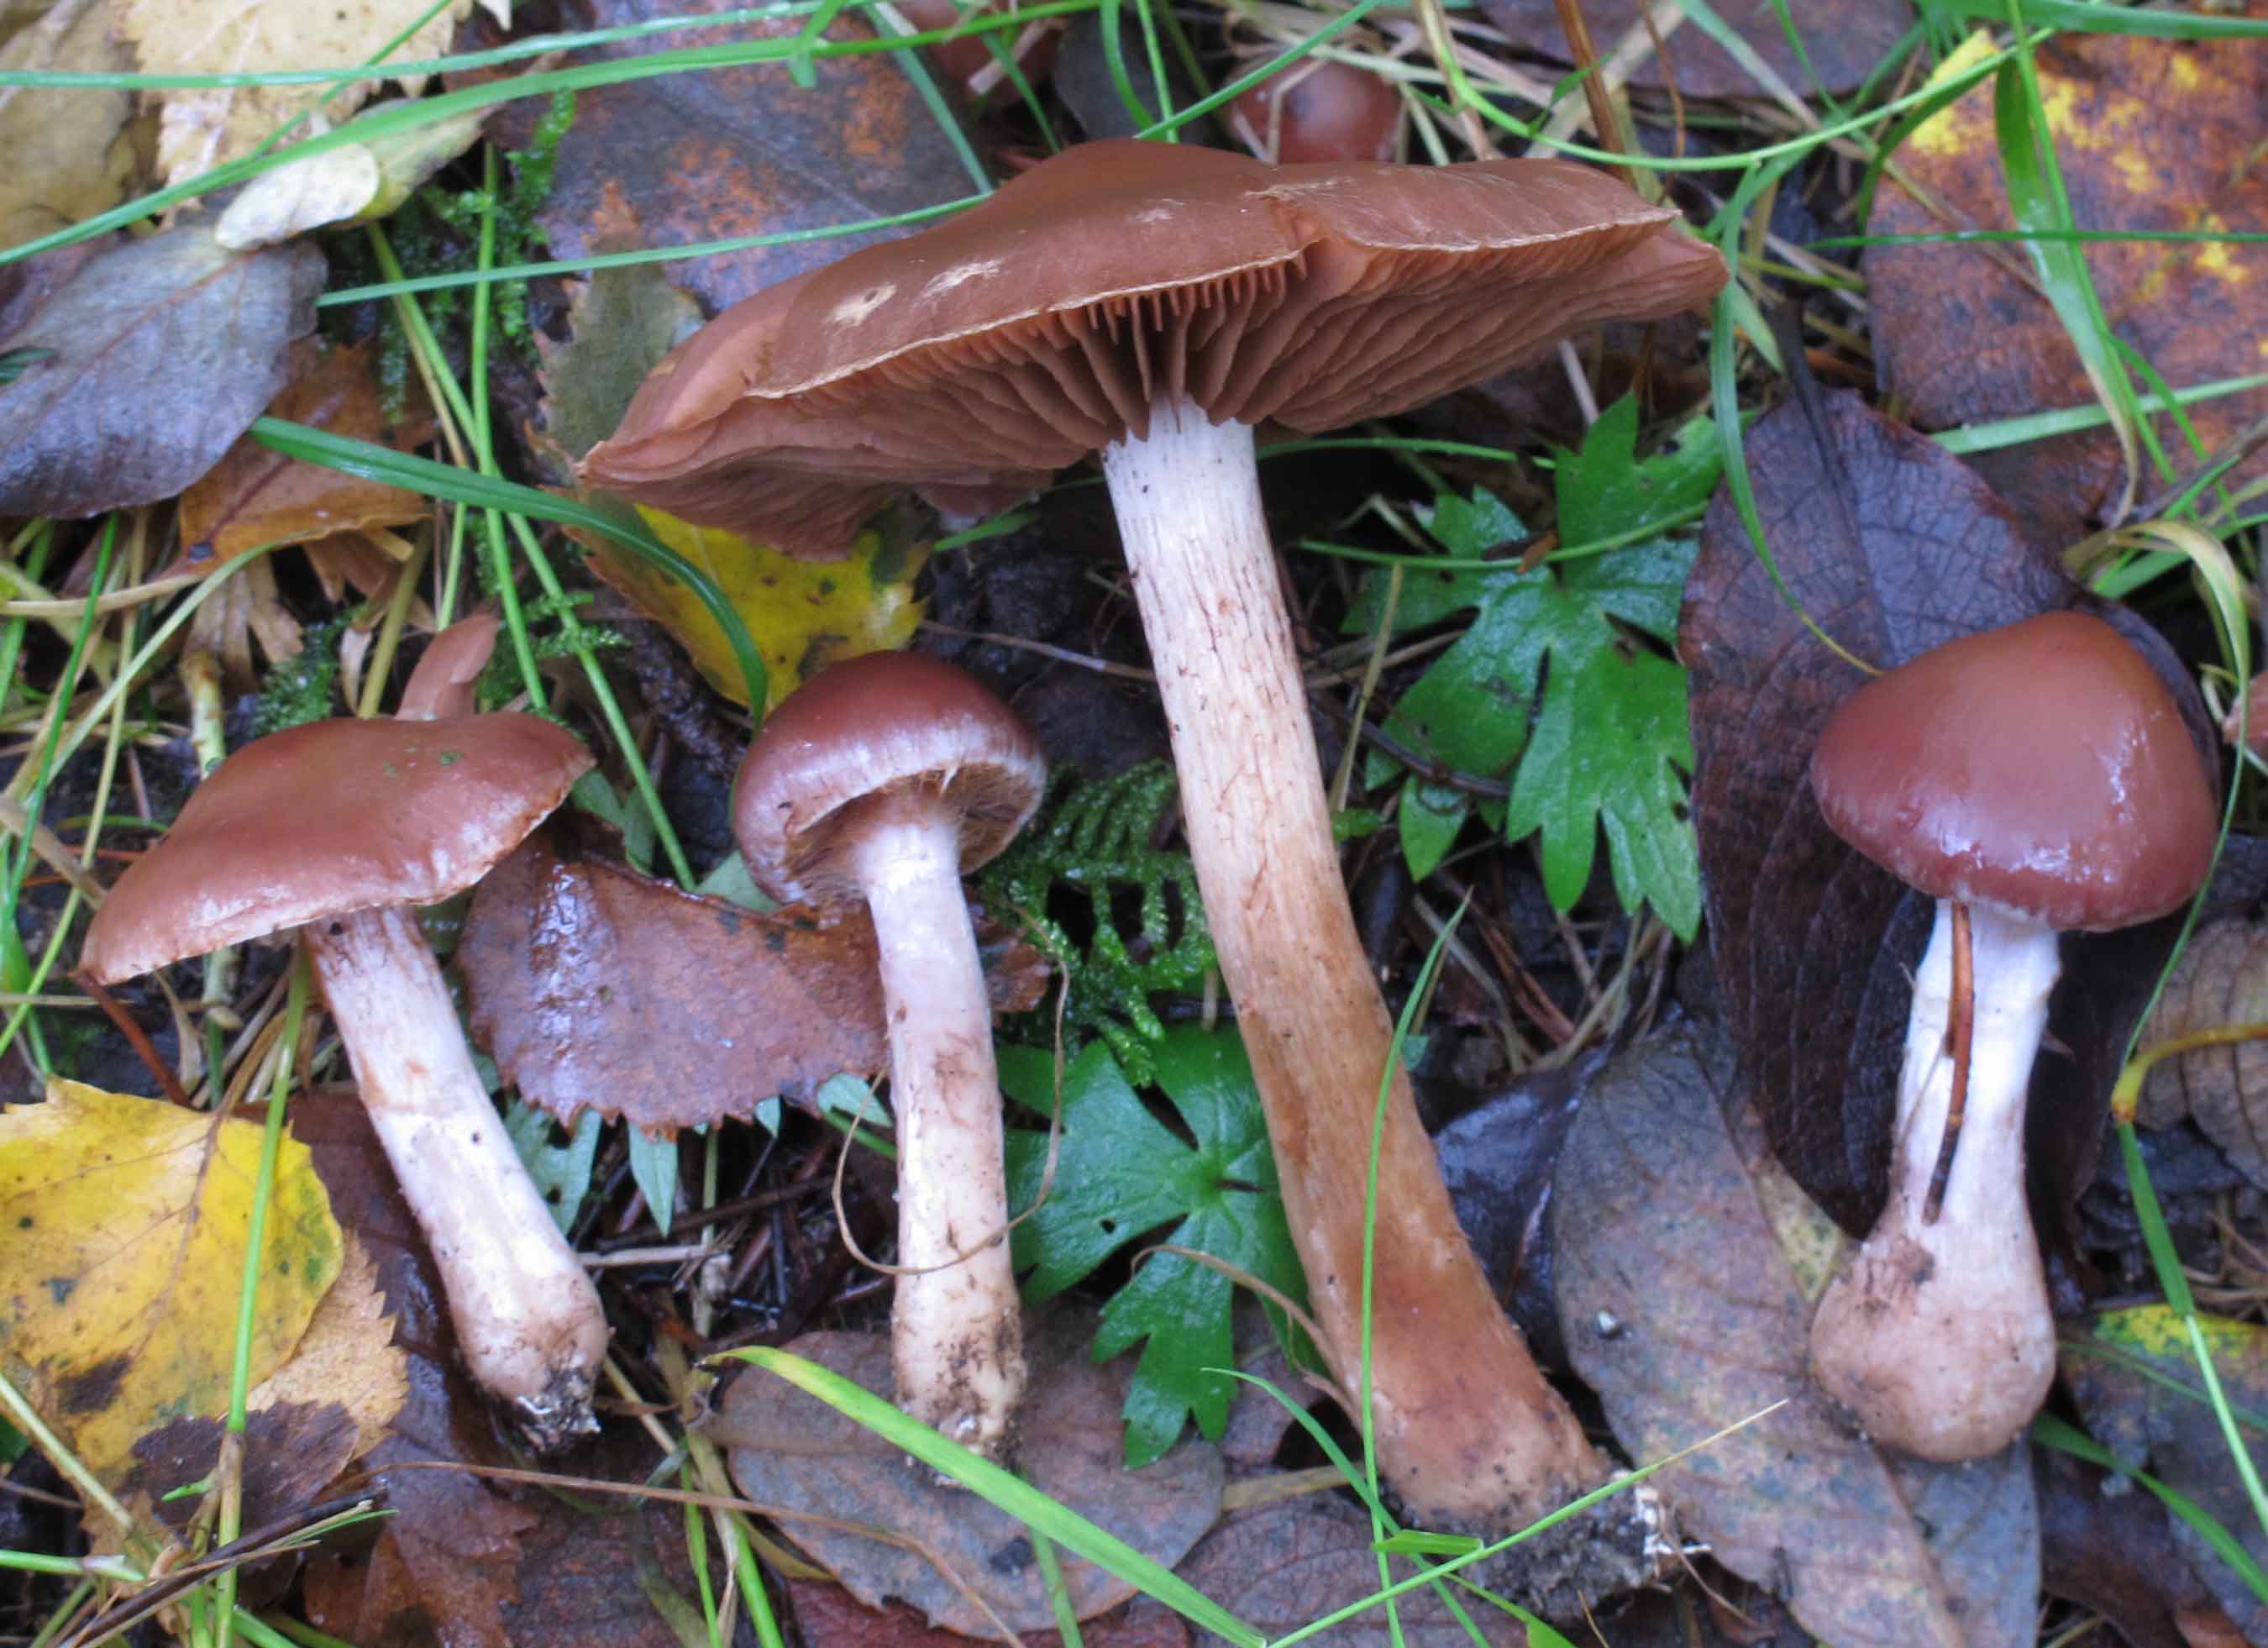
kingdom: Fungi
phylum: Basidiomycota
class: Agaricomycetes
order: Agaricales
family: Cortinariaceae
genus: Cortinarius
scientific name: Cortinarius saturninus
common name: brunviolet slørhat
